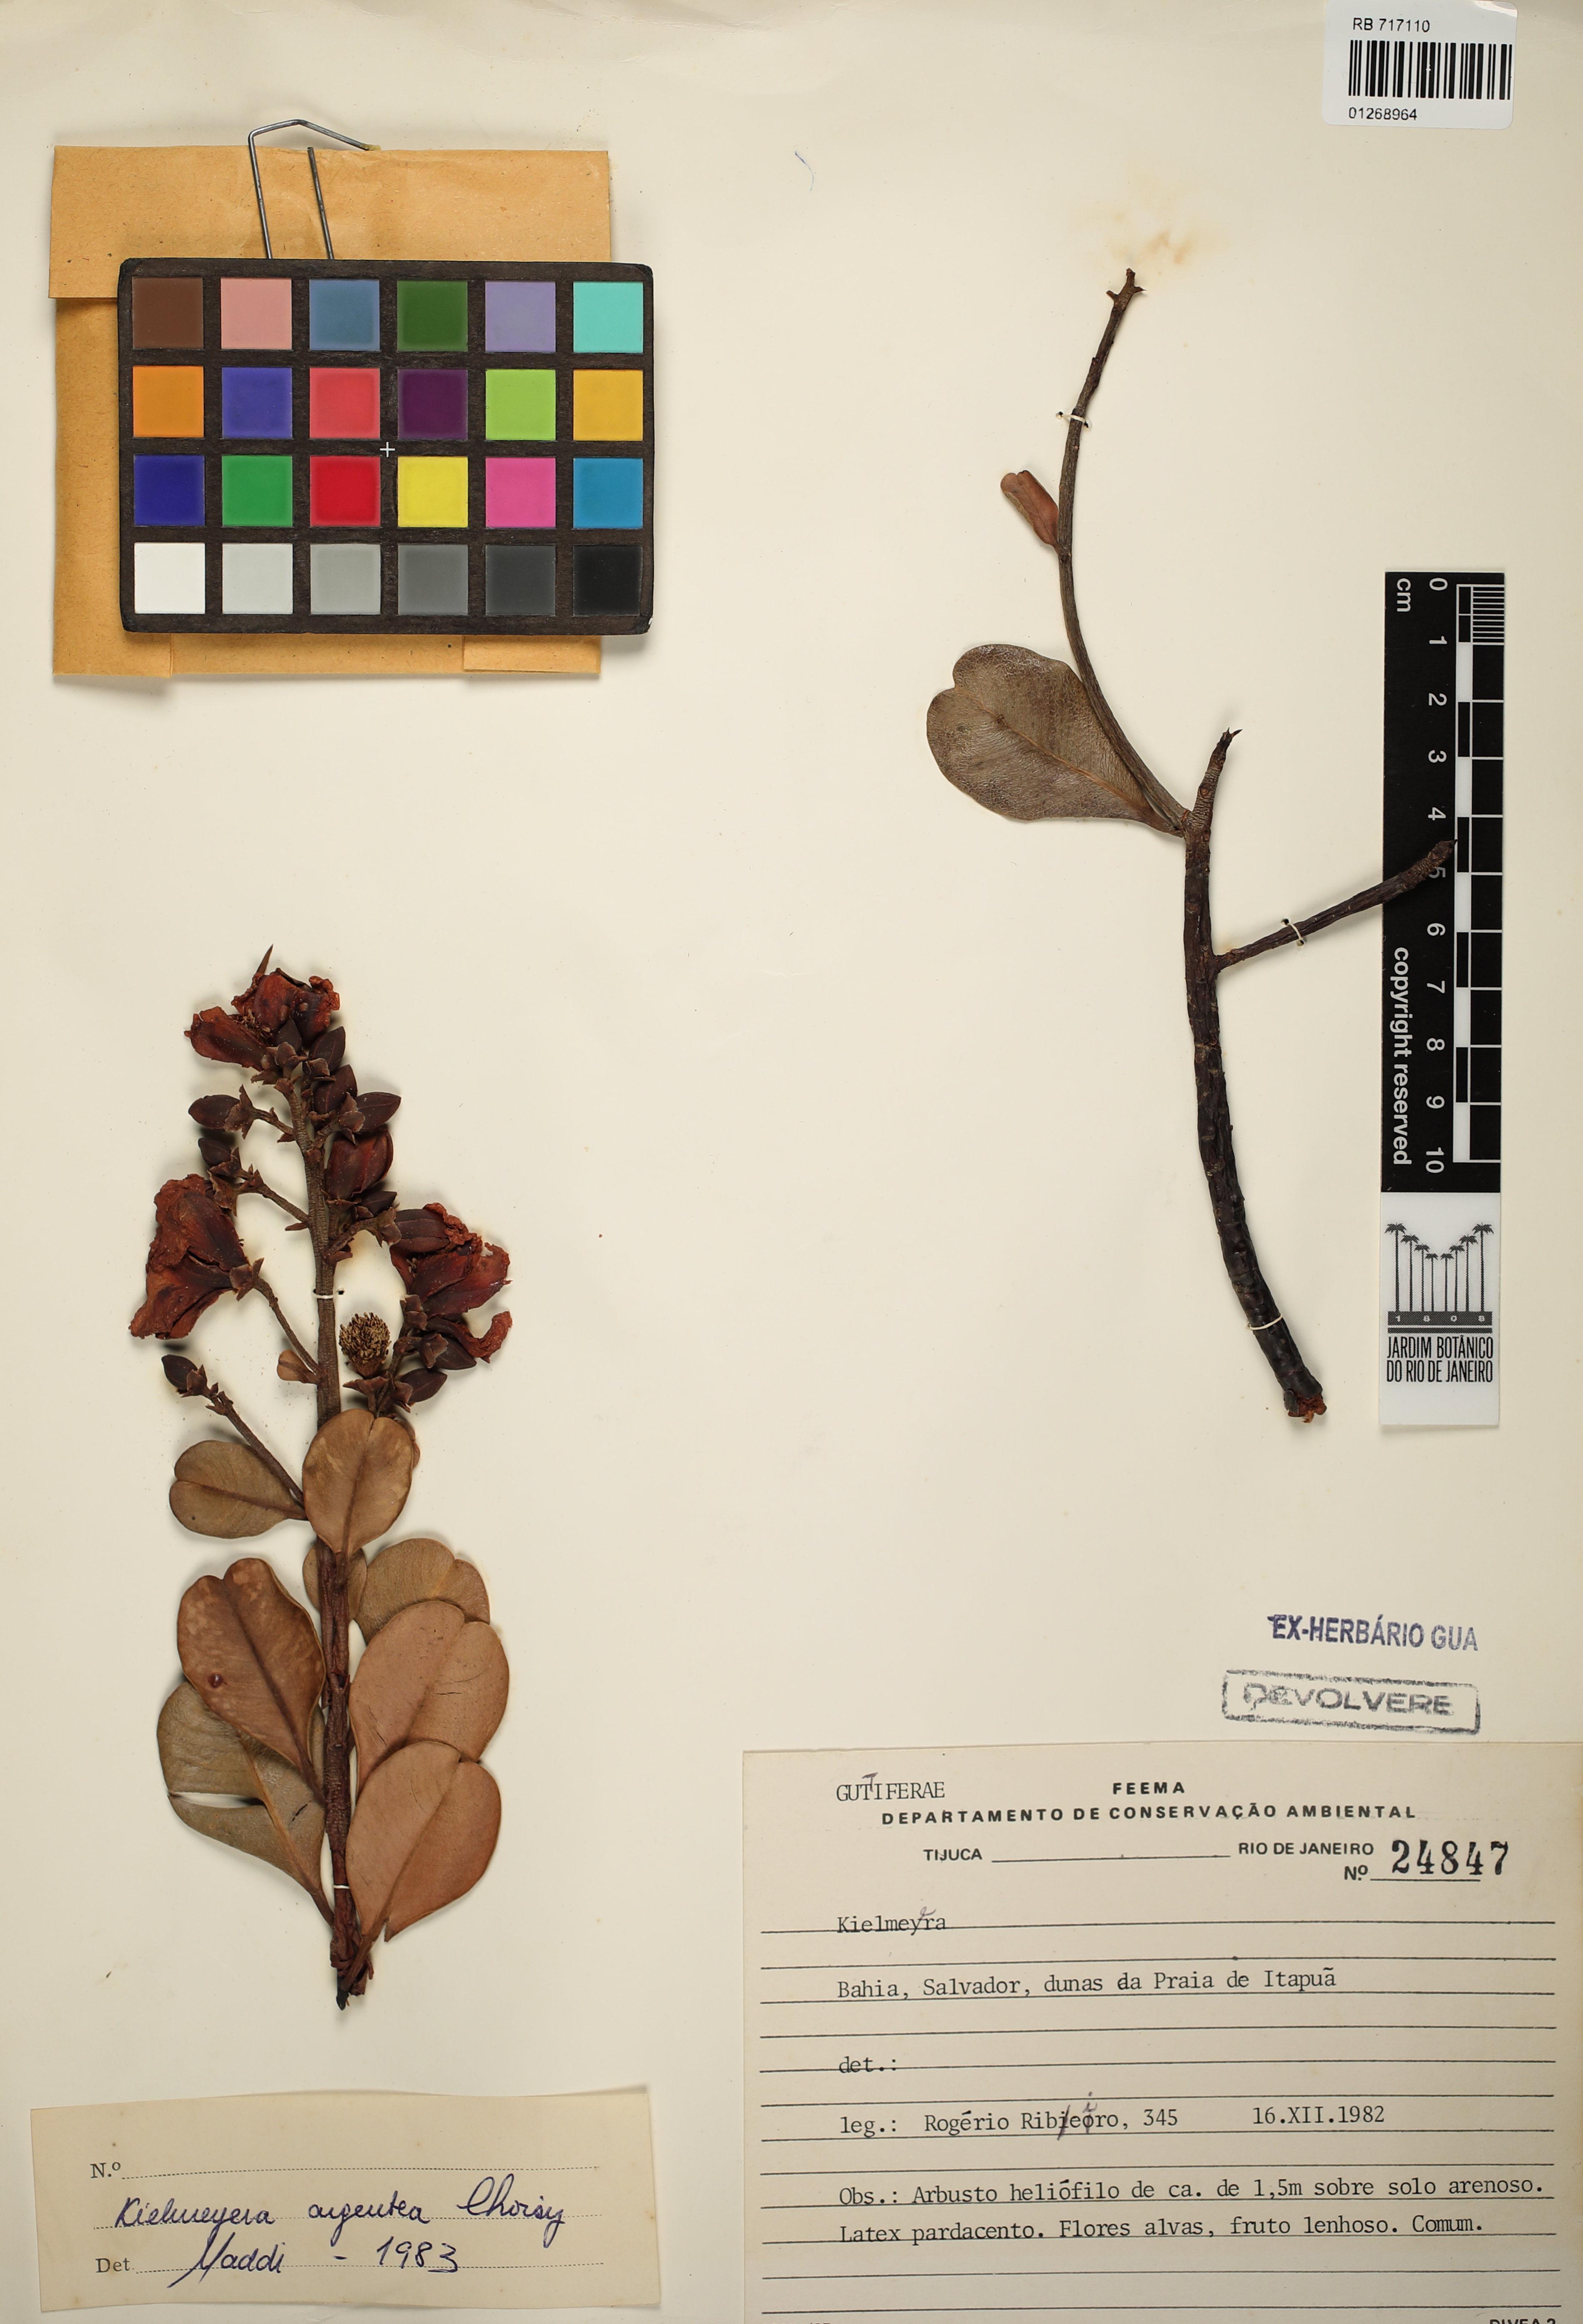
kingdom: Plantae
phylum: Tracheophyta
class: Magnoliopsida
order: Malpighiales
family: Calophyllaceae
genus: Kielmeyera
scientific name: Kielmeyera argentea
